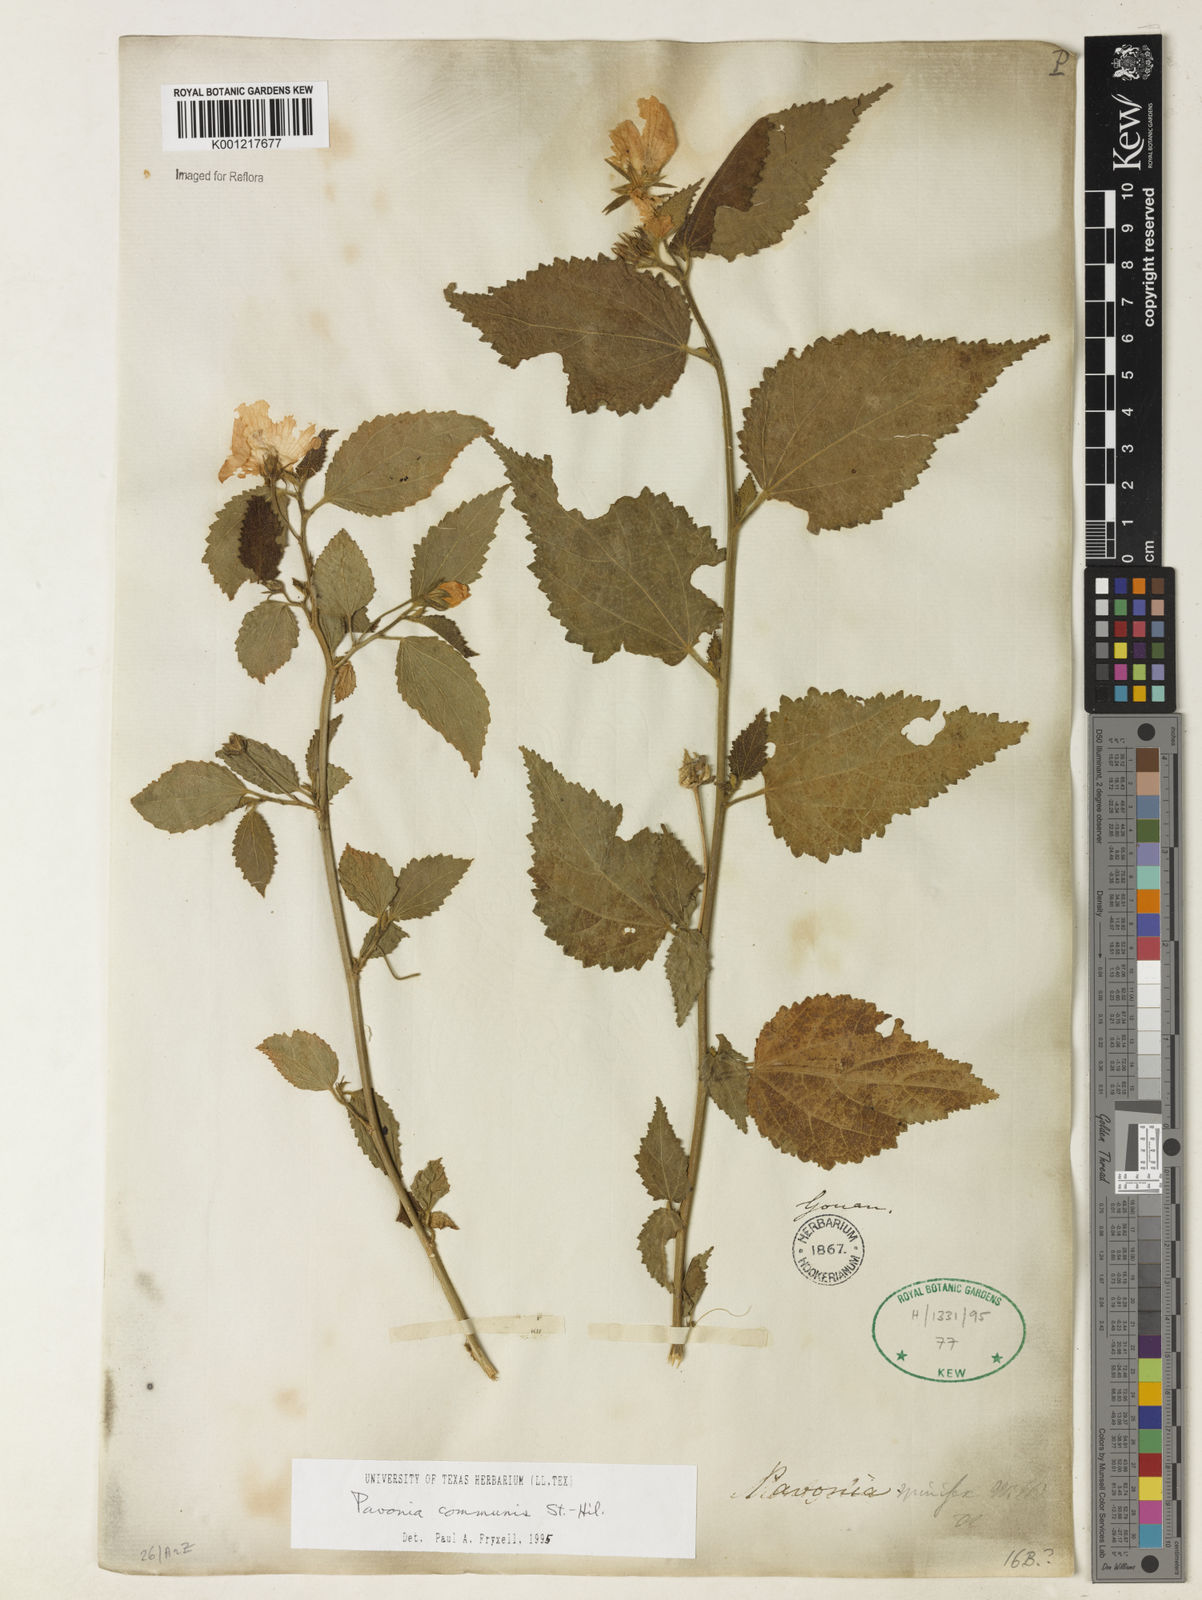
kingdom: Plantae
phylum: Tracheophyta
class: Magnoliopsida
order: Malvales
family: Malvaceae
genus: Pavonia
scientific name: Pavonia communis
